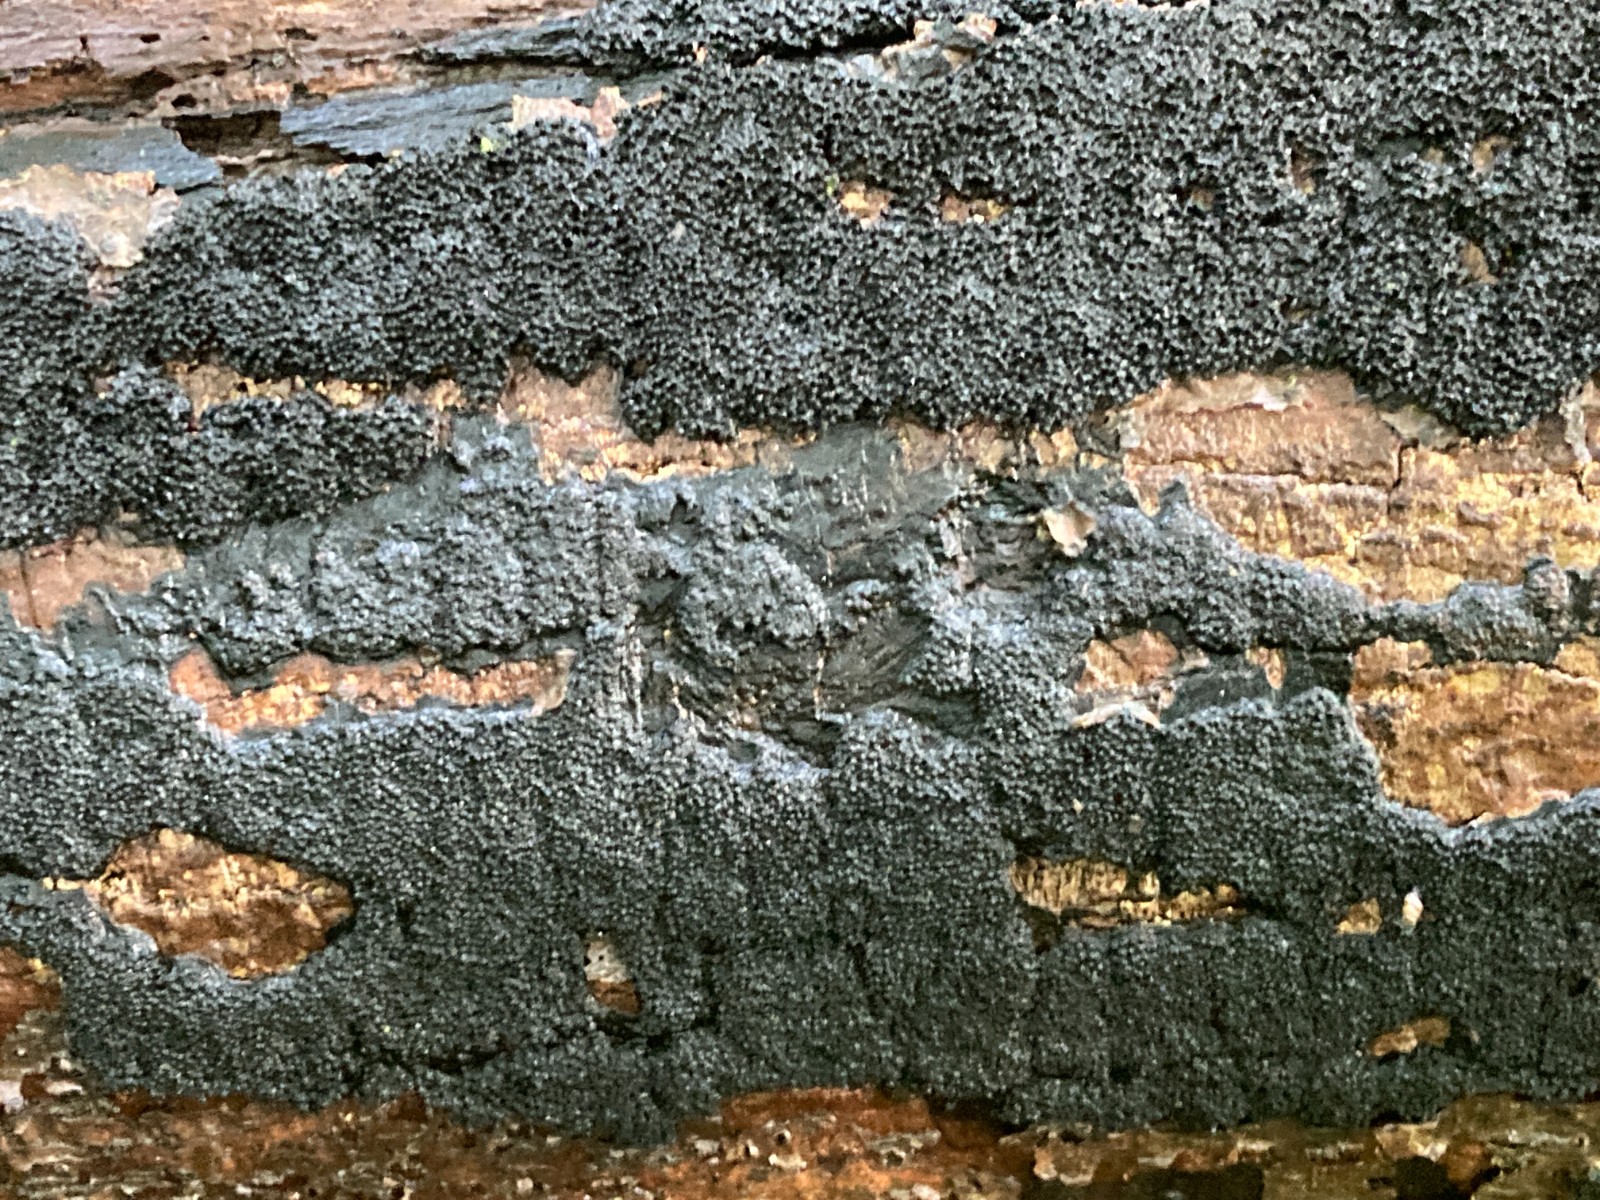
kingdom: Fungi
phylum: Ascomycota
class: Sordariomycetes
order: Xylariales
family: Diatrypaceae
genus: Eutypa
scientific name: Eutypa spinosa
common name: grov kulskorpe
